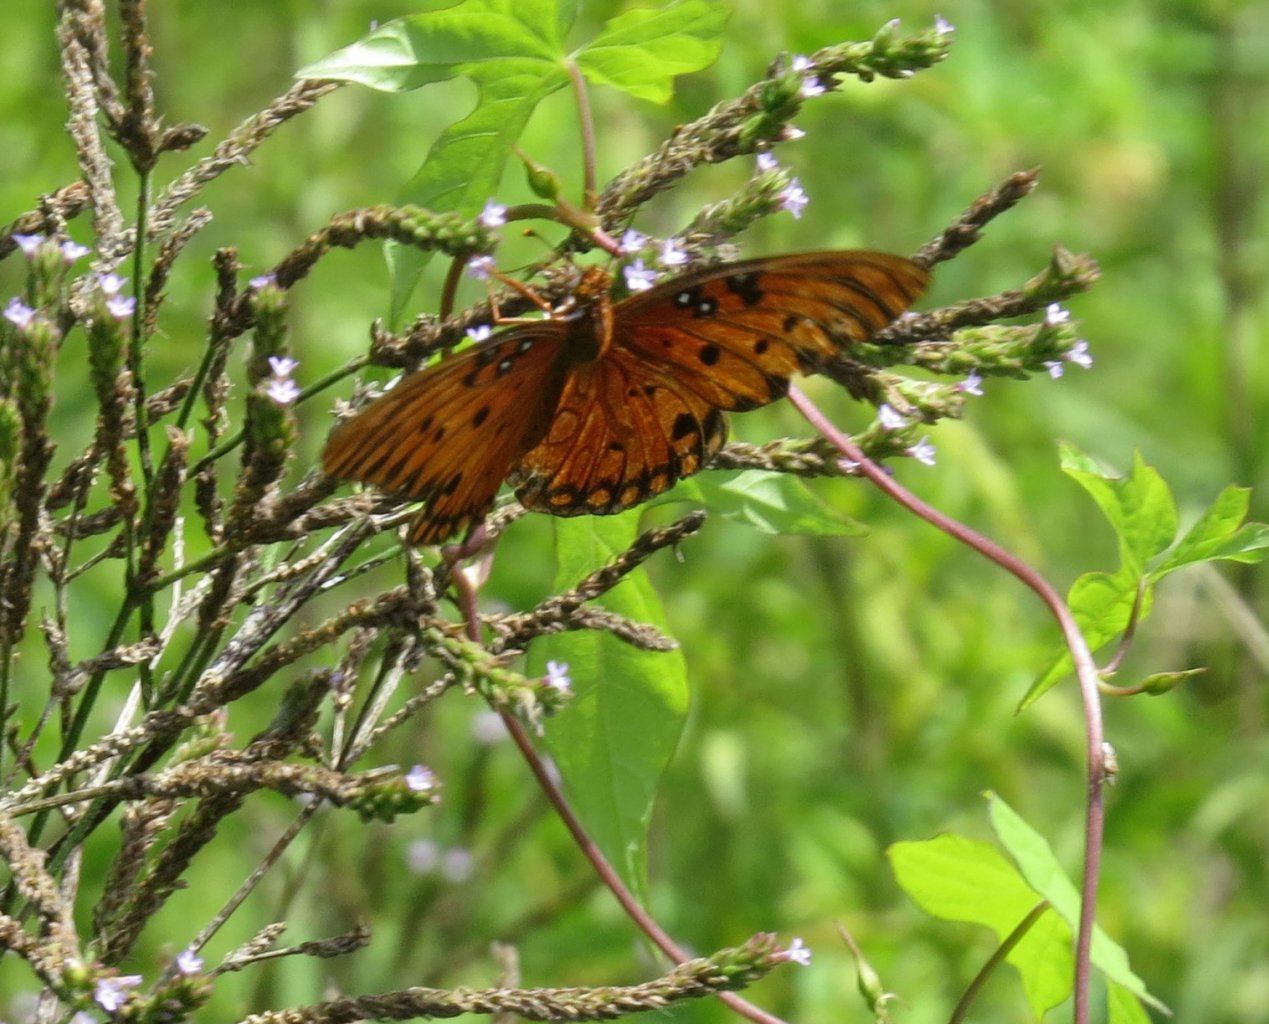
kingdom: Animalia
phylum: Arthropoda
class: Insecta
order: Lepidoptera
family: Nymphalidae
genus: Dione
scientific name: Dione vanillae
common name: Gulf Fritillary
